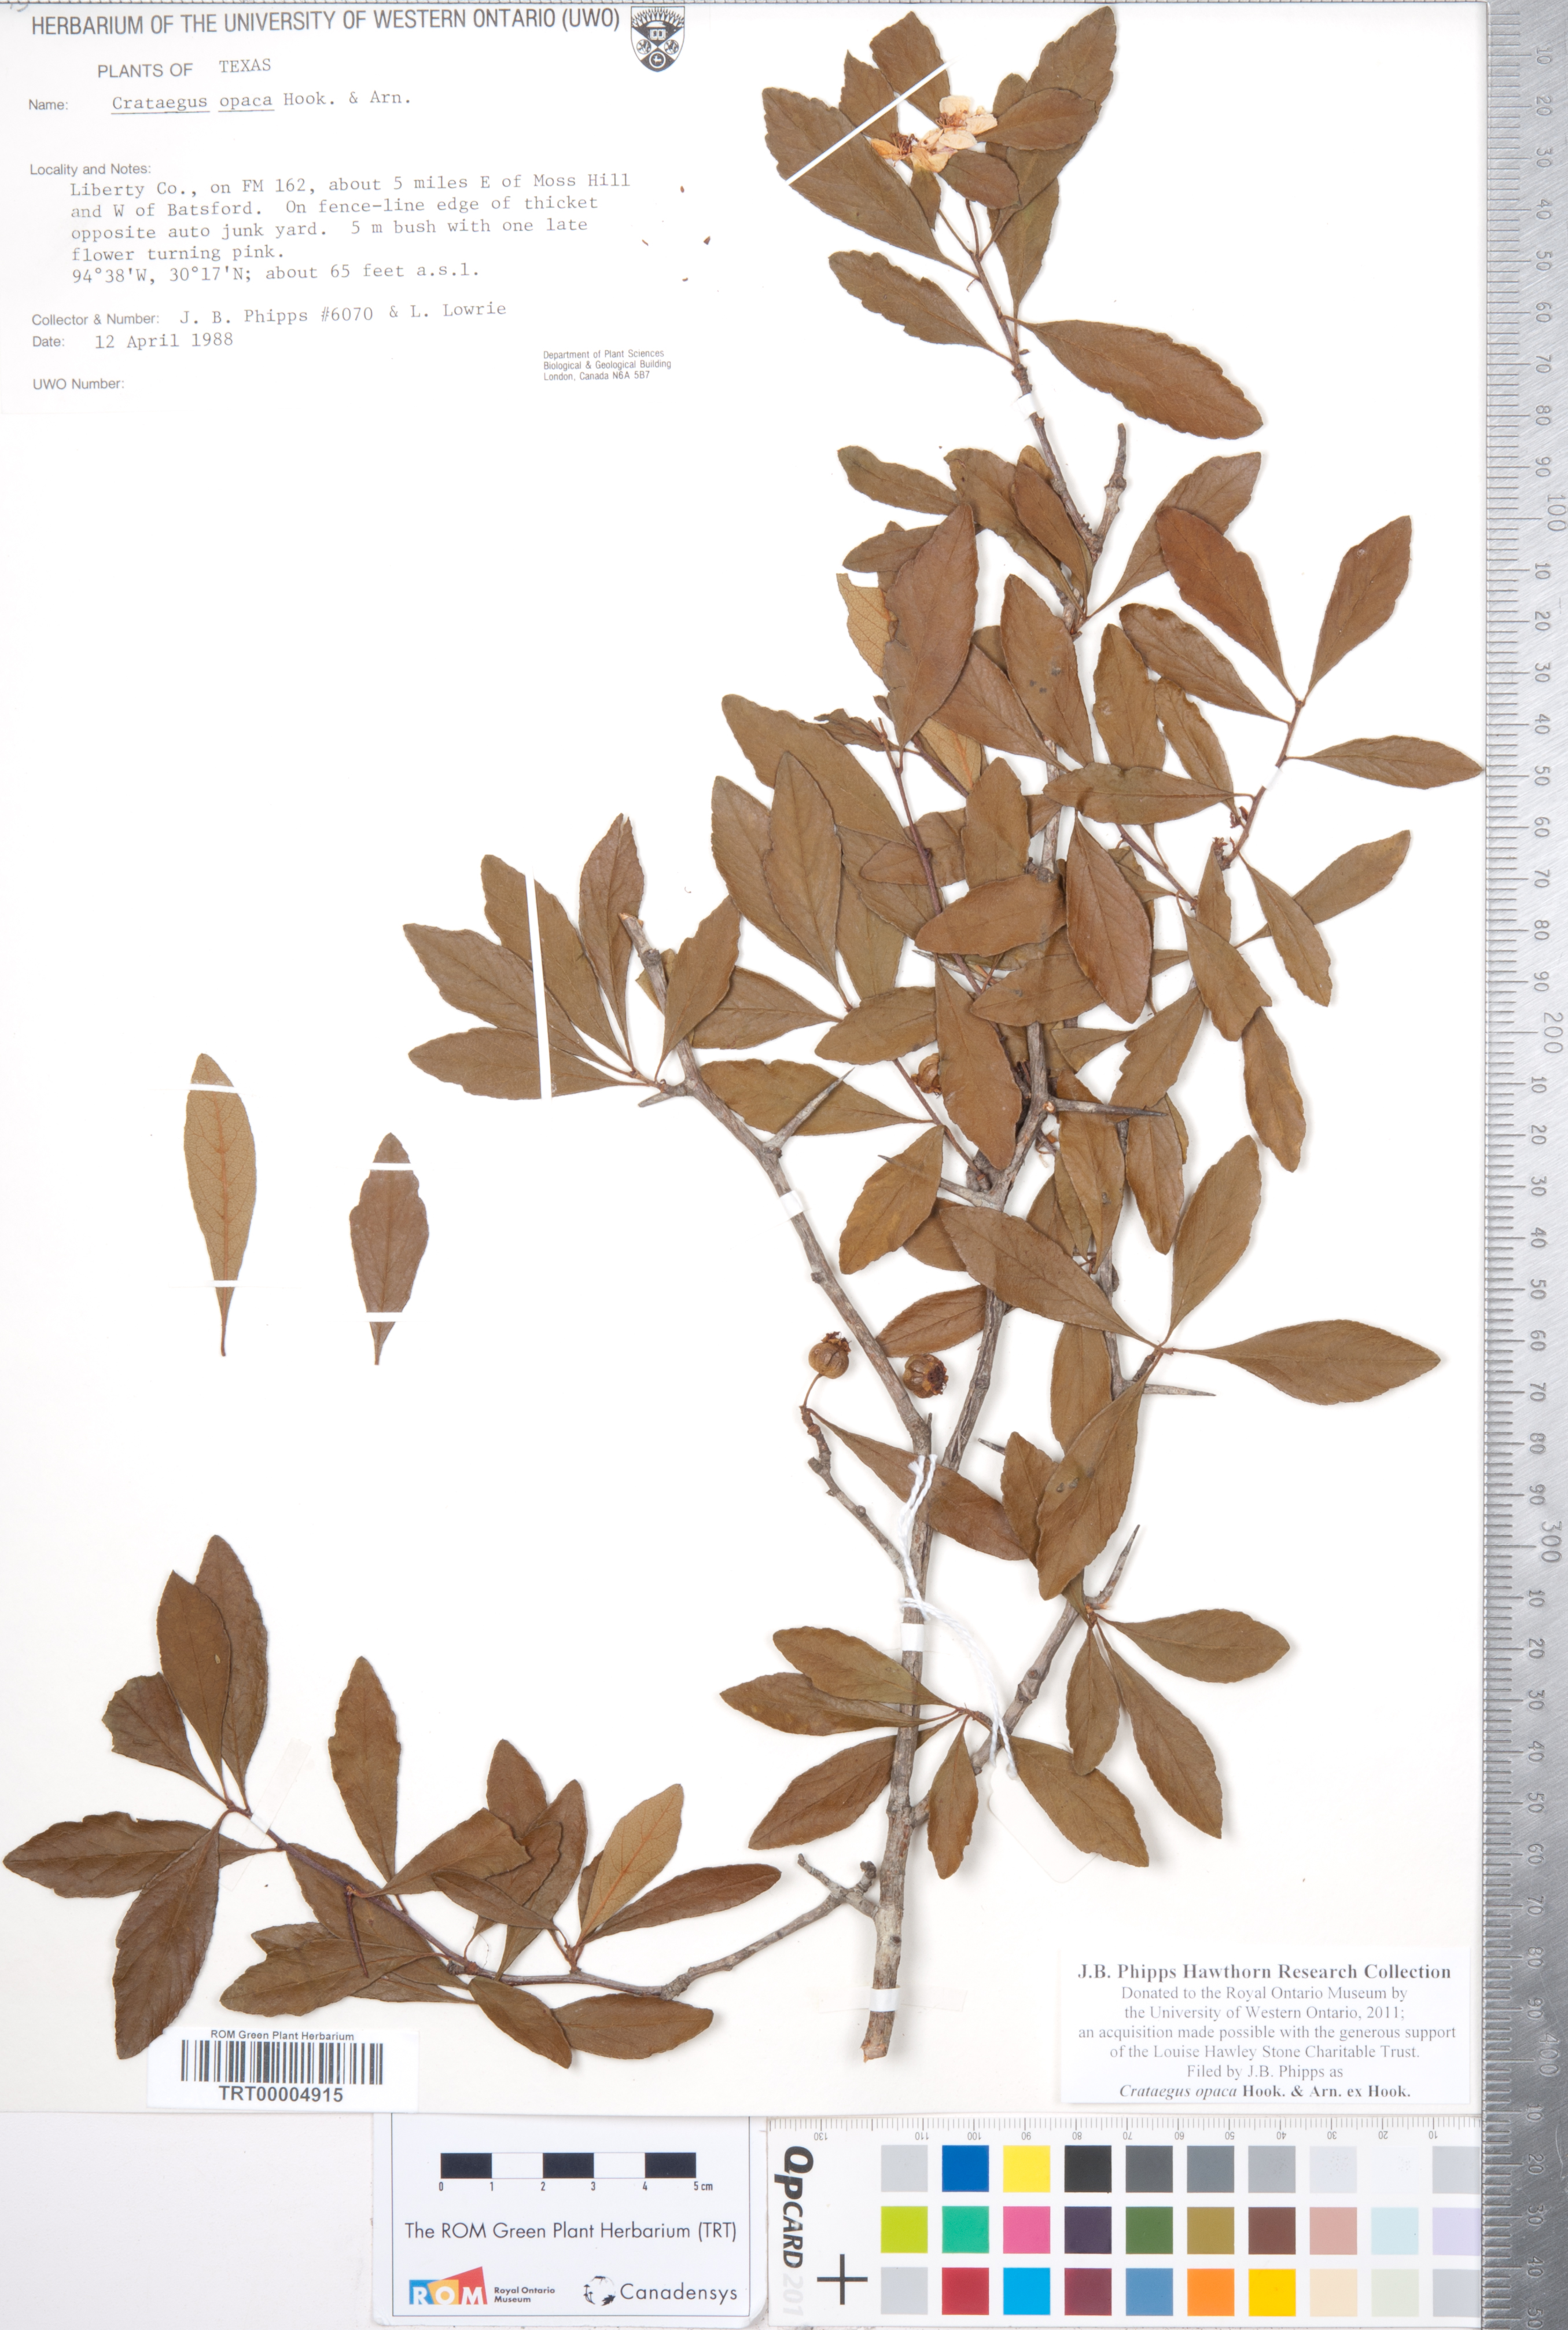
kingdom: Plantae
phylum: Tracheophyta
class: Magnoliopsida
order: Rosales
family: Rosaceae
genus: Crataegus
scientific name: Crataegus opaca
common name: Apple haw
